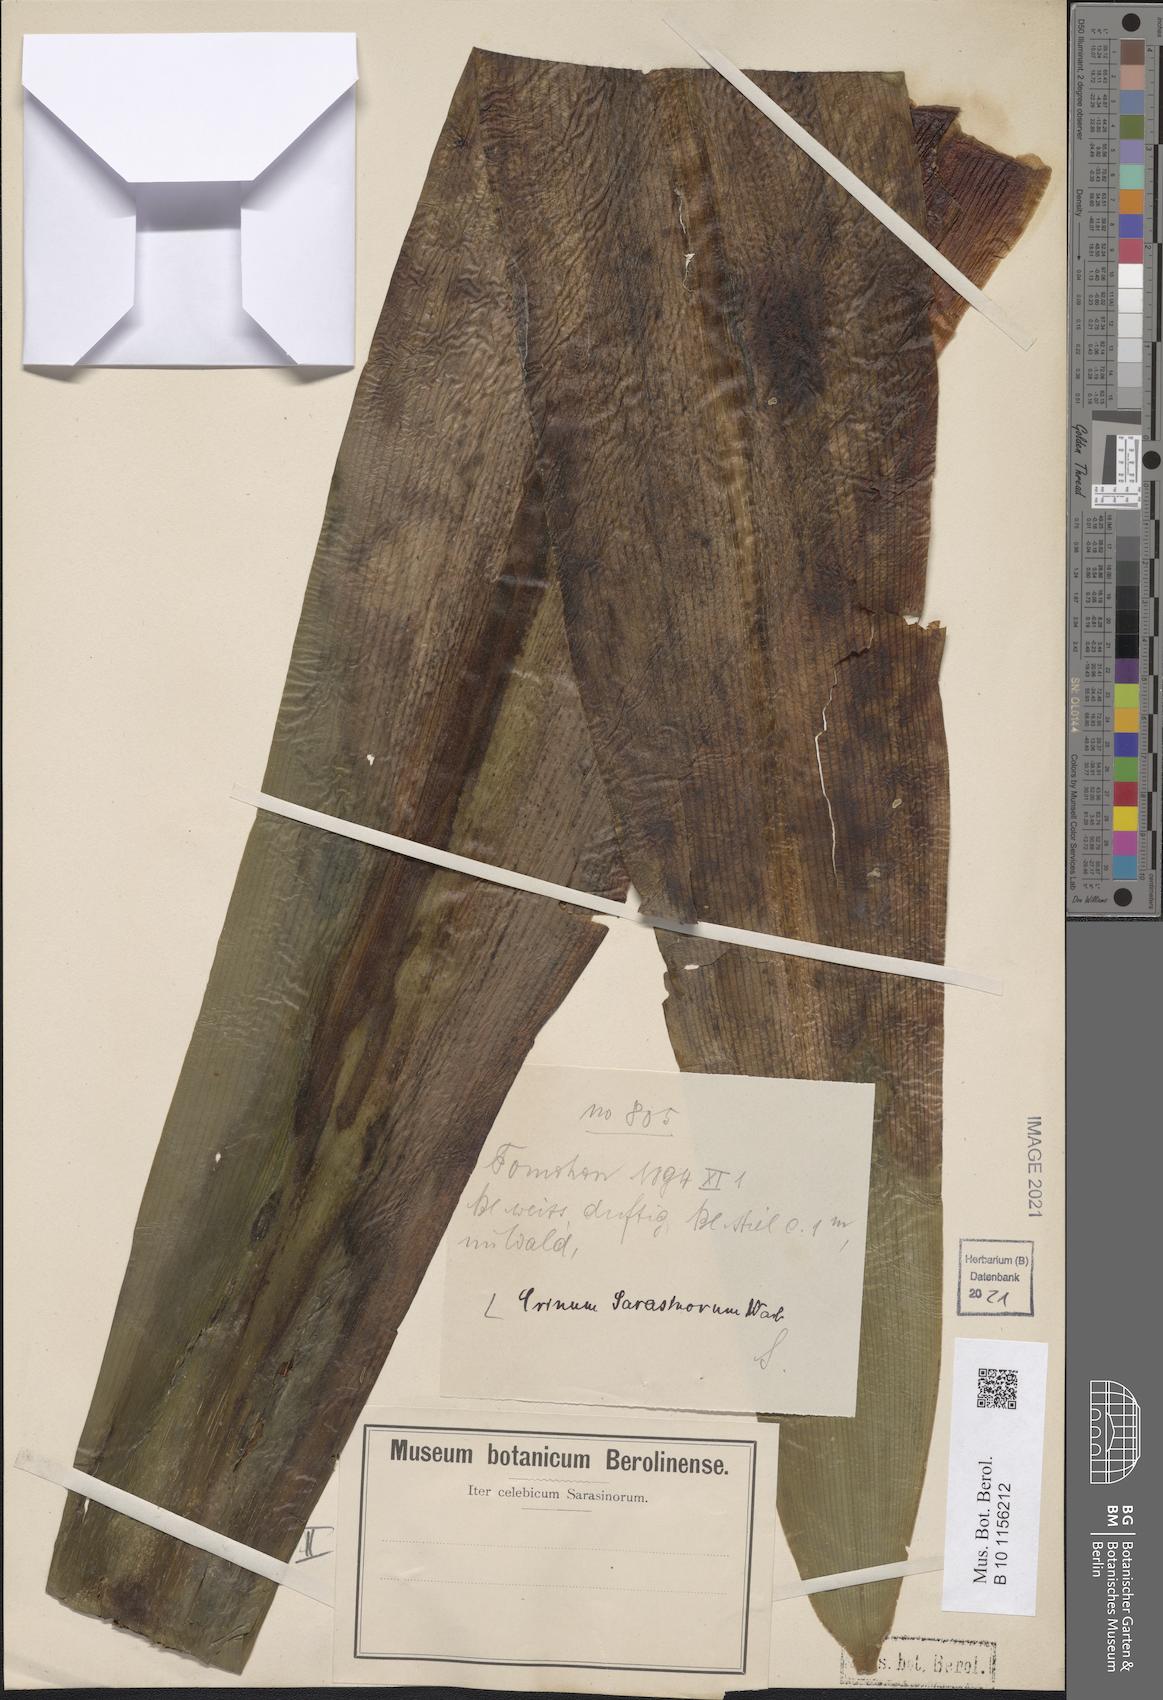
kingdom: Plantae
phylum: Tracheophyta
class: Liliopsida
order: Asparagales
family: Amaryllidaceae
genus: Crinum
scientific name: Crinum
